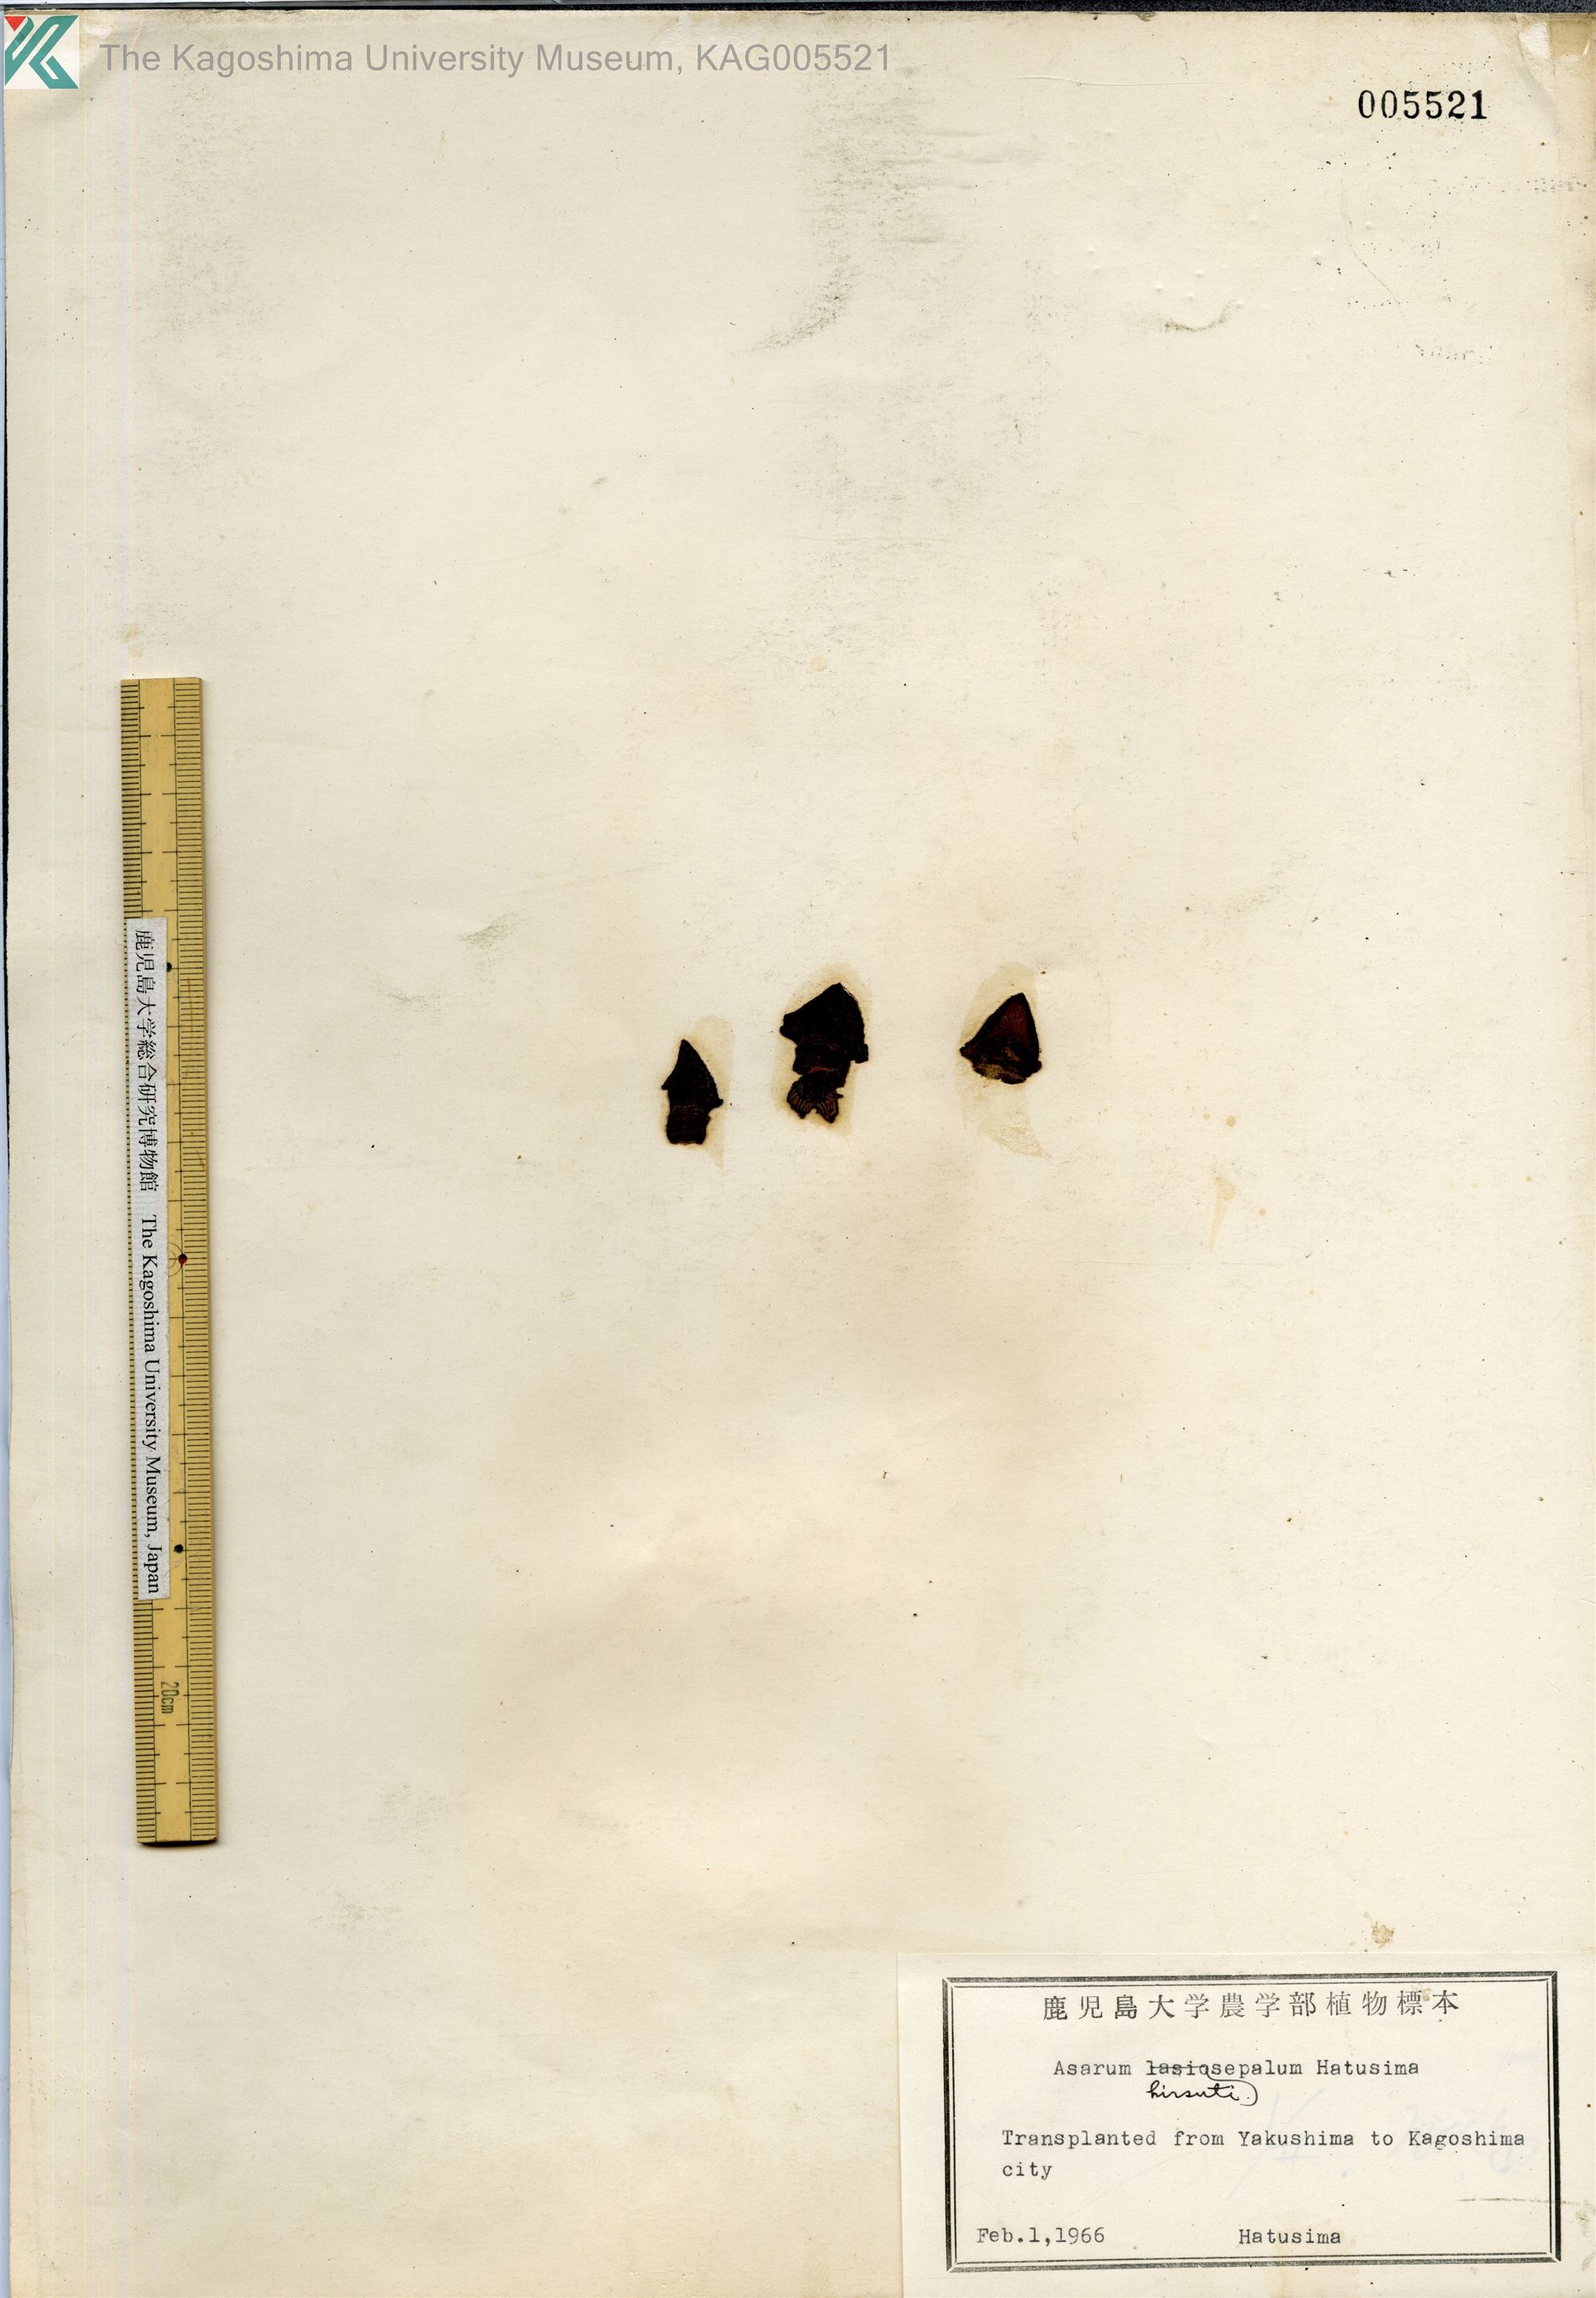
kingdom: Plantae
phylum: Tracheophyta
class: Magnoliopsida
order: Piperales
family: Aristolochiaceae
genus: Asarum
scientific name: Asarum yakusimense
